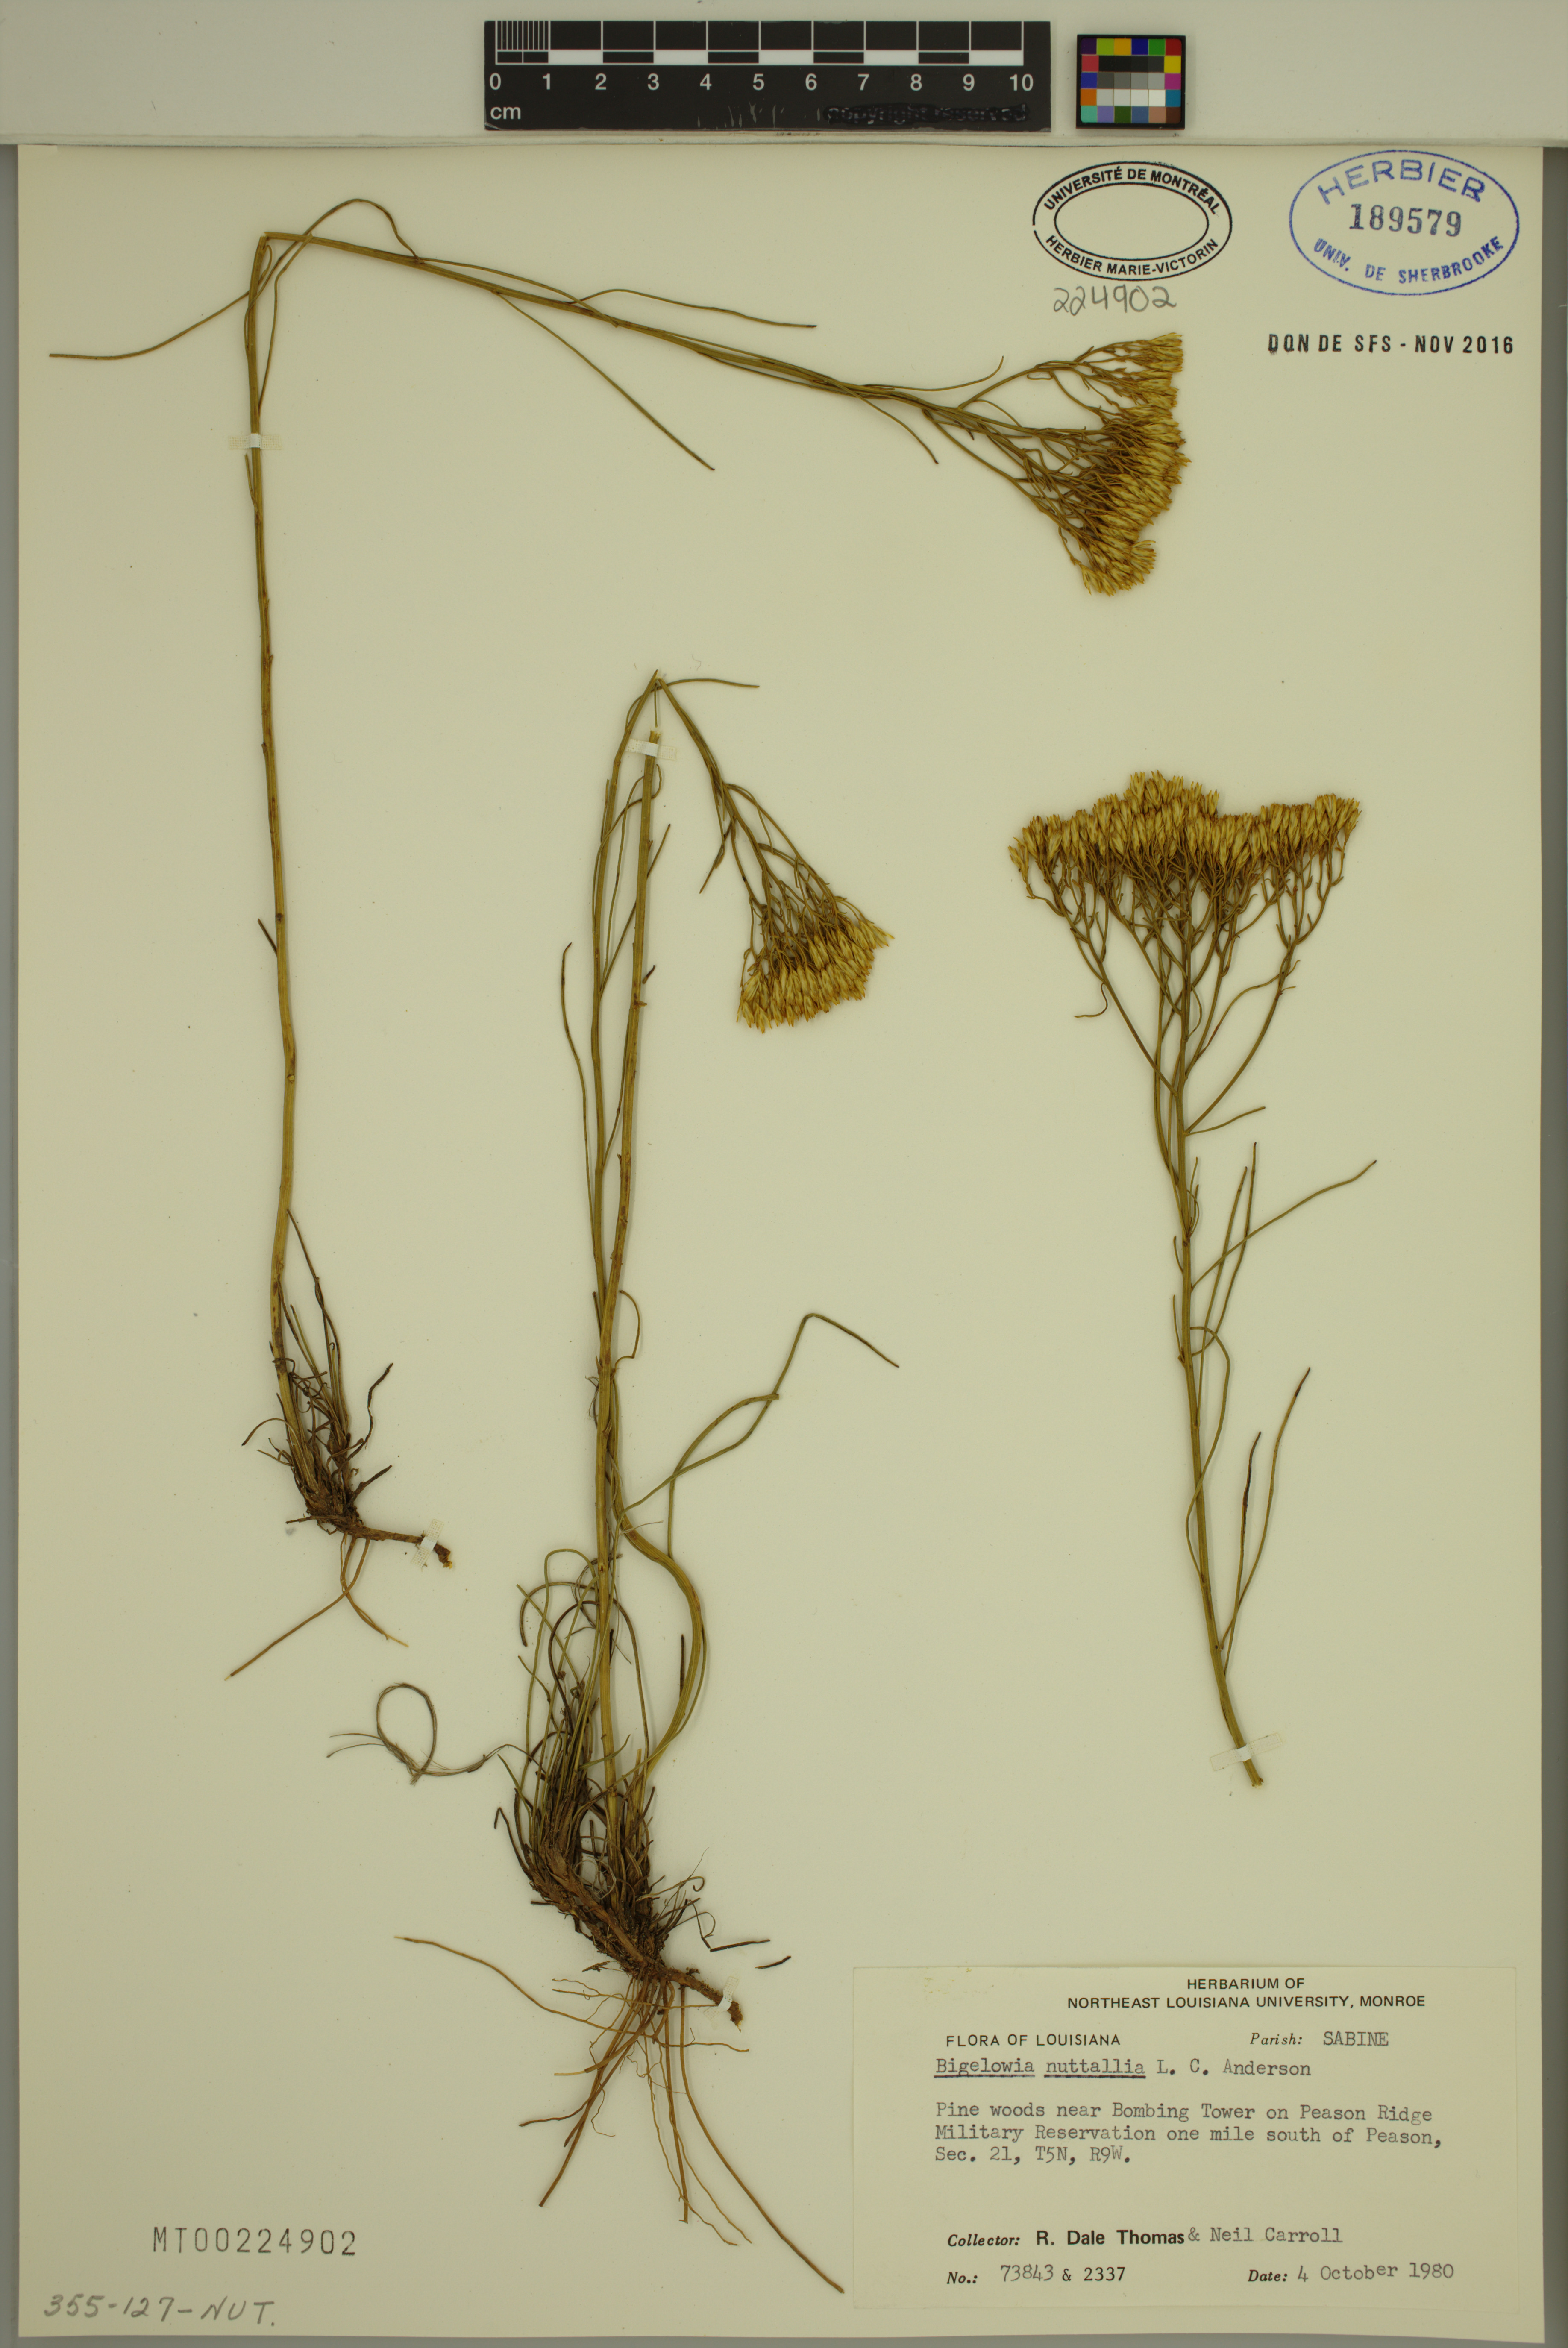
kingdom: Plantae
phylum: Tracheophyta
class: Magnoliopsida
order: Asterales
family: Asteraceae
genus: Bigelowia
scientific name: Bigelowia nuttallii
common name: Nuttall's rayless-goldenrod
